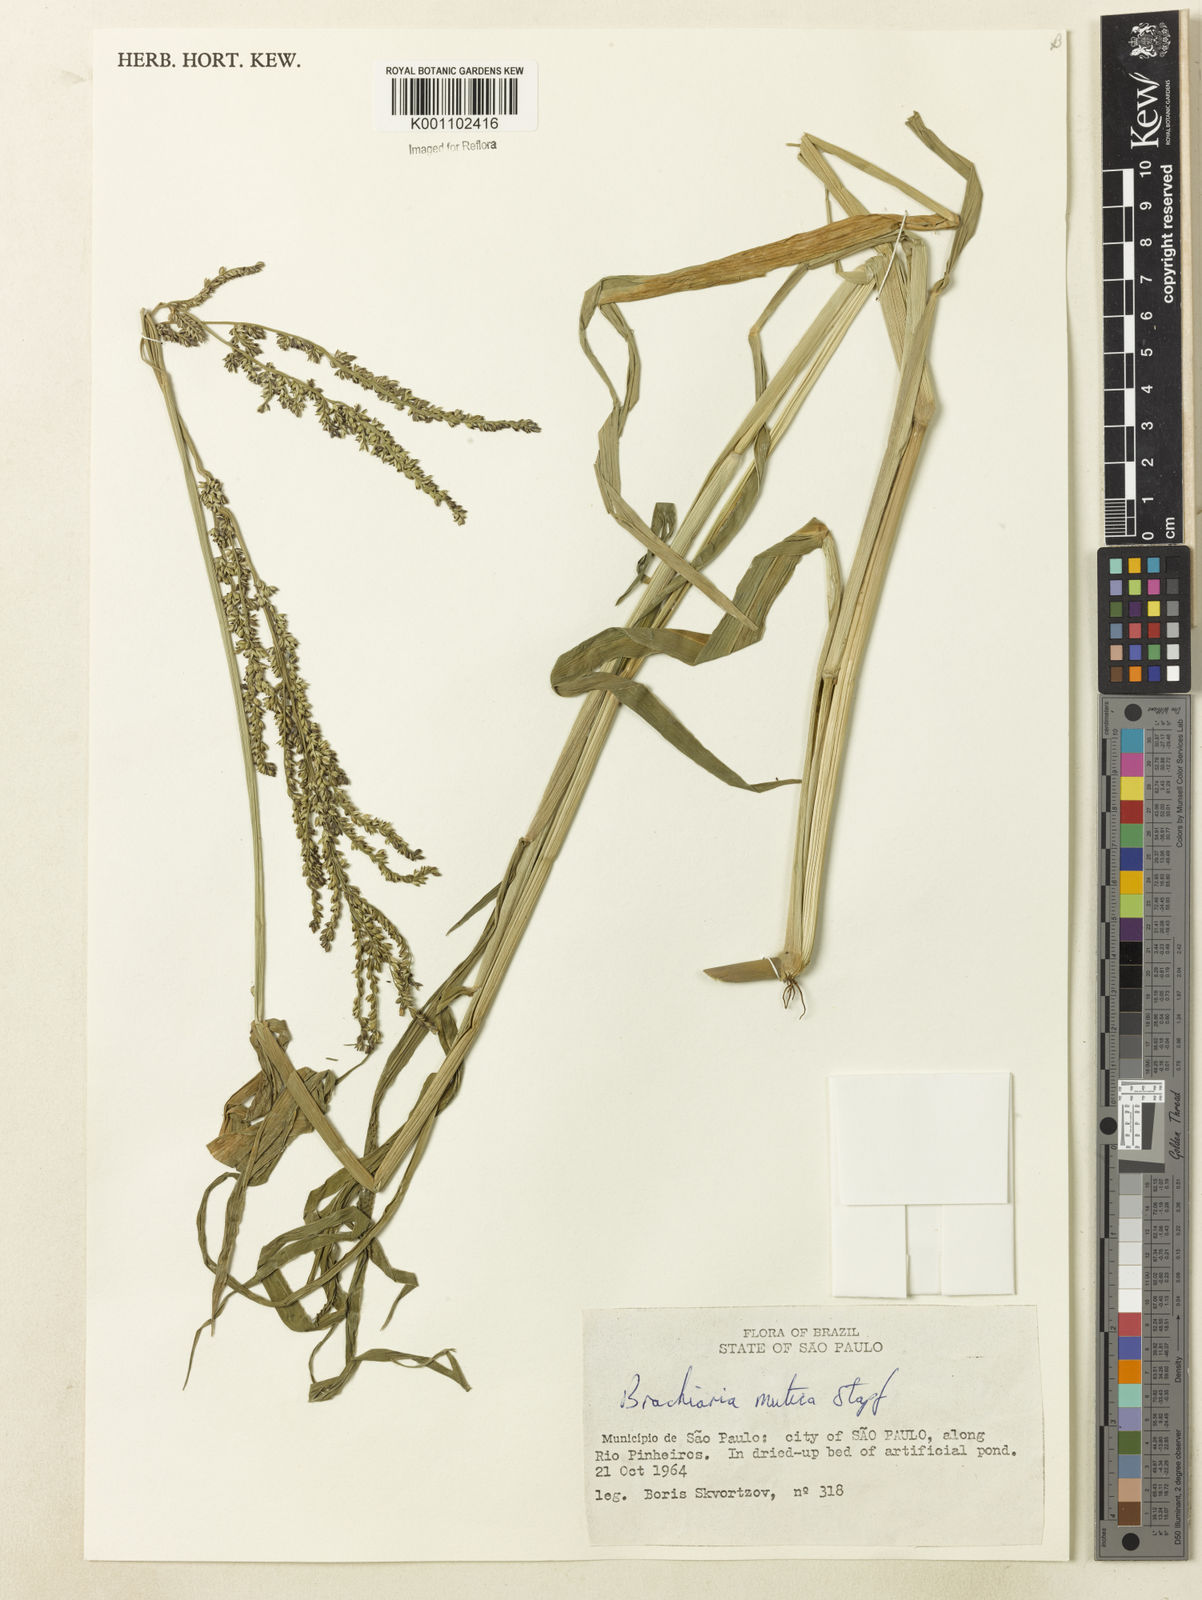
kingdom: Plantae
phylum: Tracheophyta
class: Liliopsida
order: Poales
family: Poaceae
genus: Urochloa
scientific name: Urochloa mutica
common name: Para grass
